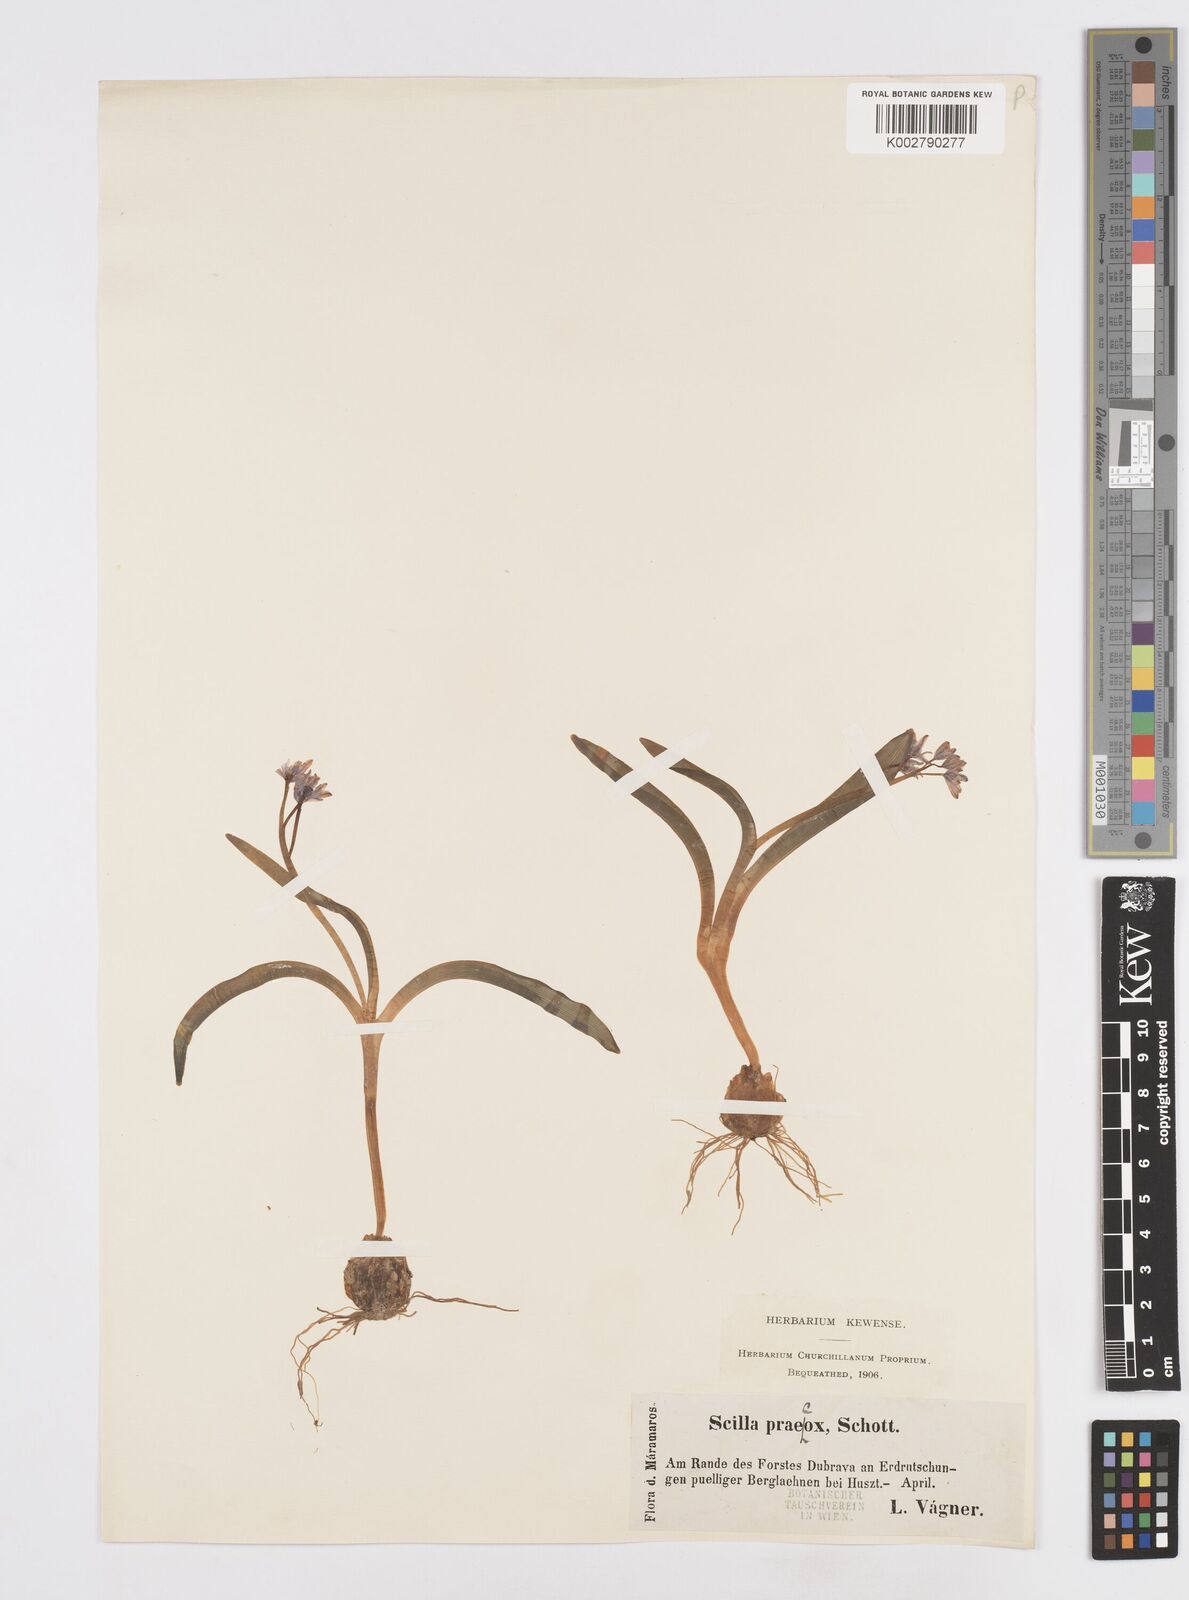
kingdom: Plantae
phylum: Tracheophyta
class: Liliopsida
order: Asparagales
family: Asparagaceae
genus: Scilla
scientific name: Scilla bifolia
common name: Alpine squill
